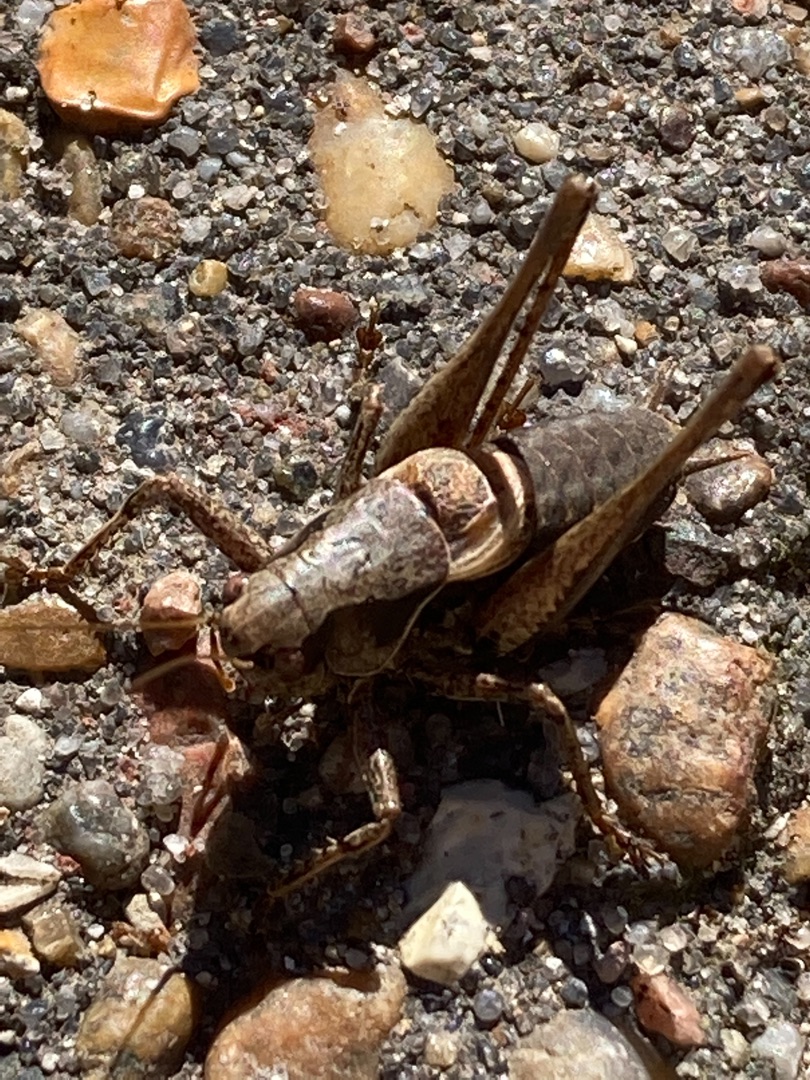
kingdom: Animalia
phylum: Arthropoda
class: Insecta
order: Orthoptera
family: Tettigoniidae
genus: Pholidoptera
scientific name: Pholidoptera griseoaptera
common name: Buskgræshoppe
